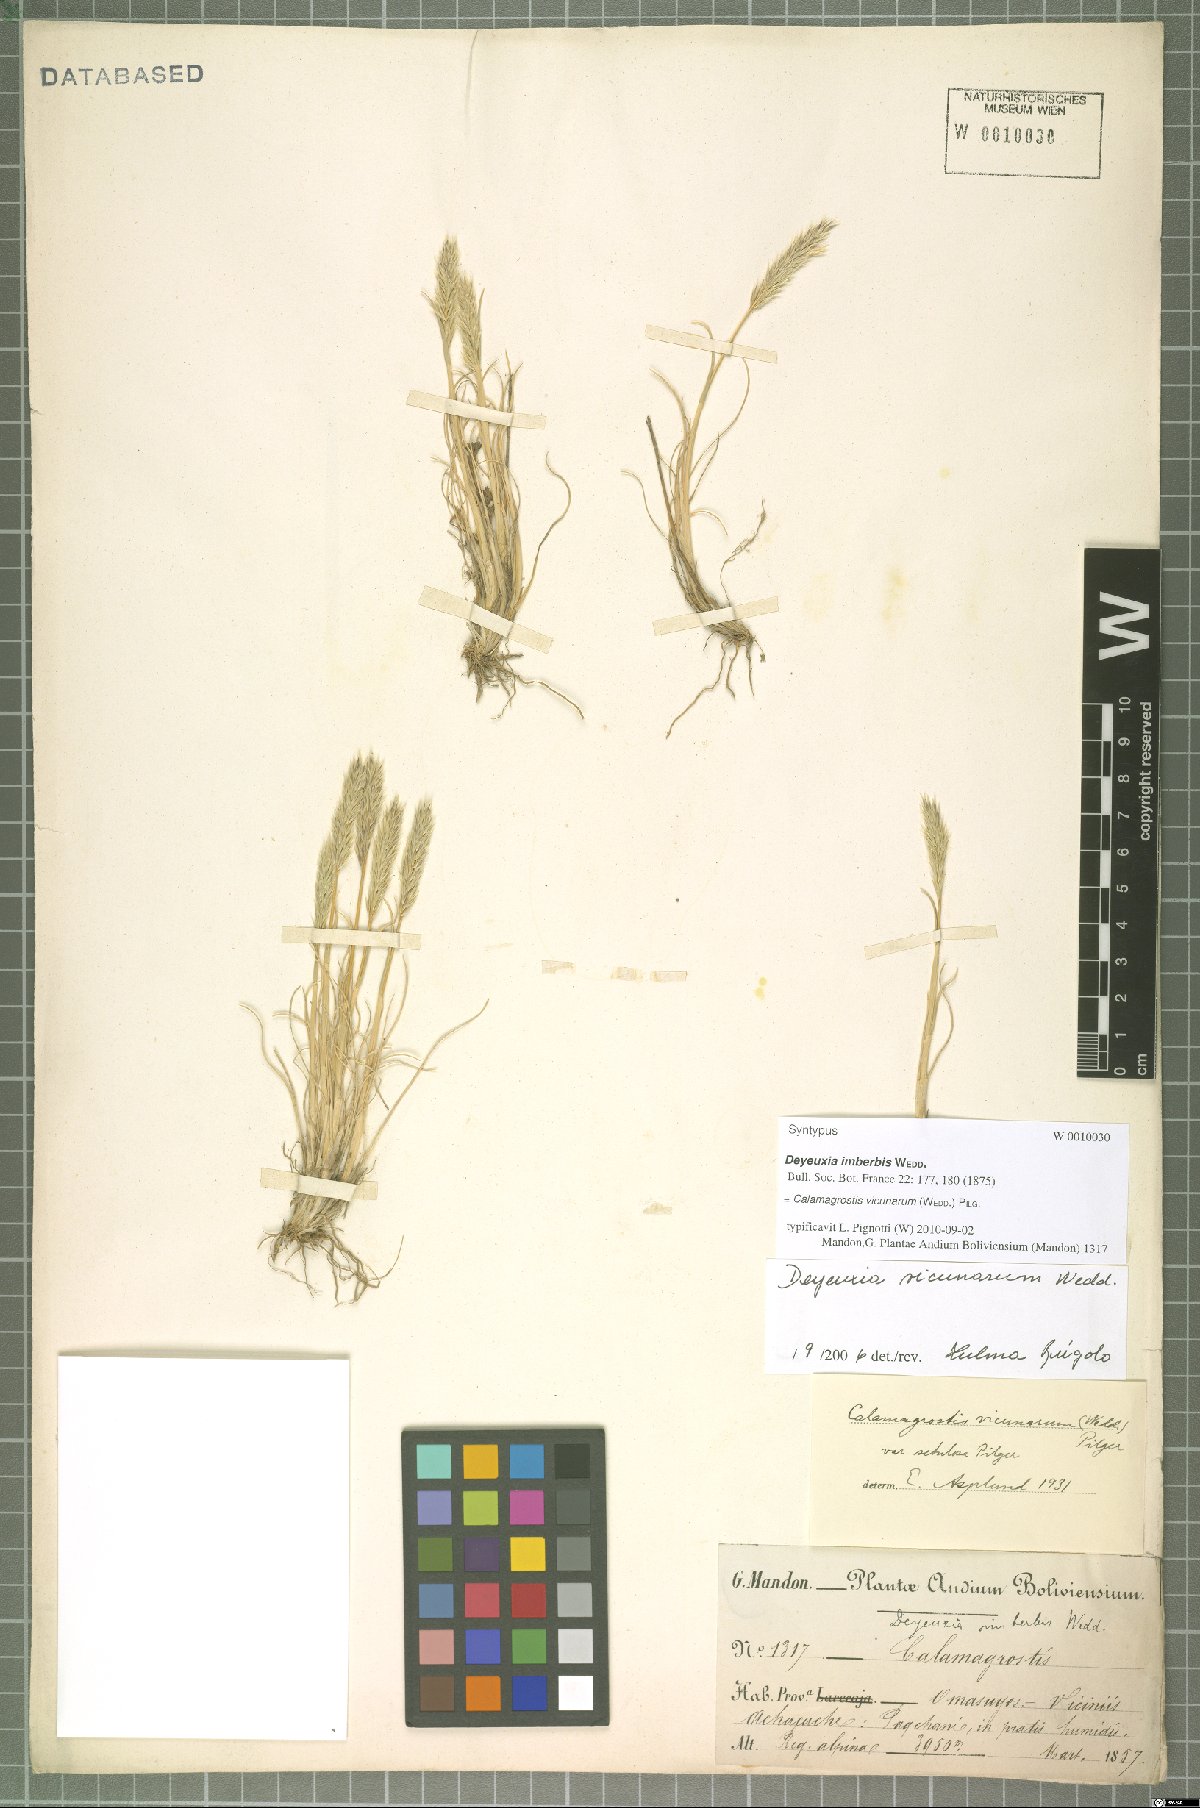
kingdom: Plantae
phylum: Tracheophyta
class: Liliopsida
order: Poales
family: Poaceae
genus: Cinnagrostis
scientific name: Cinnagrostis vicunarum
